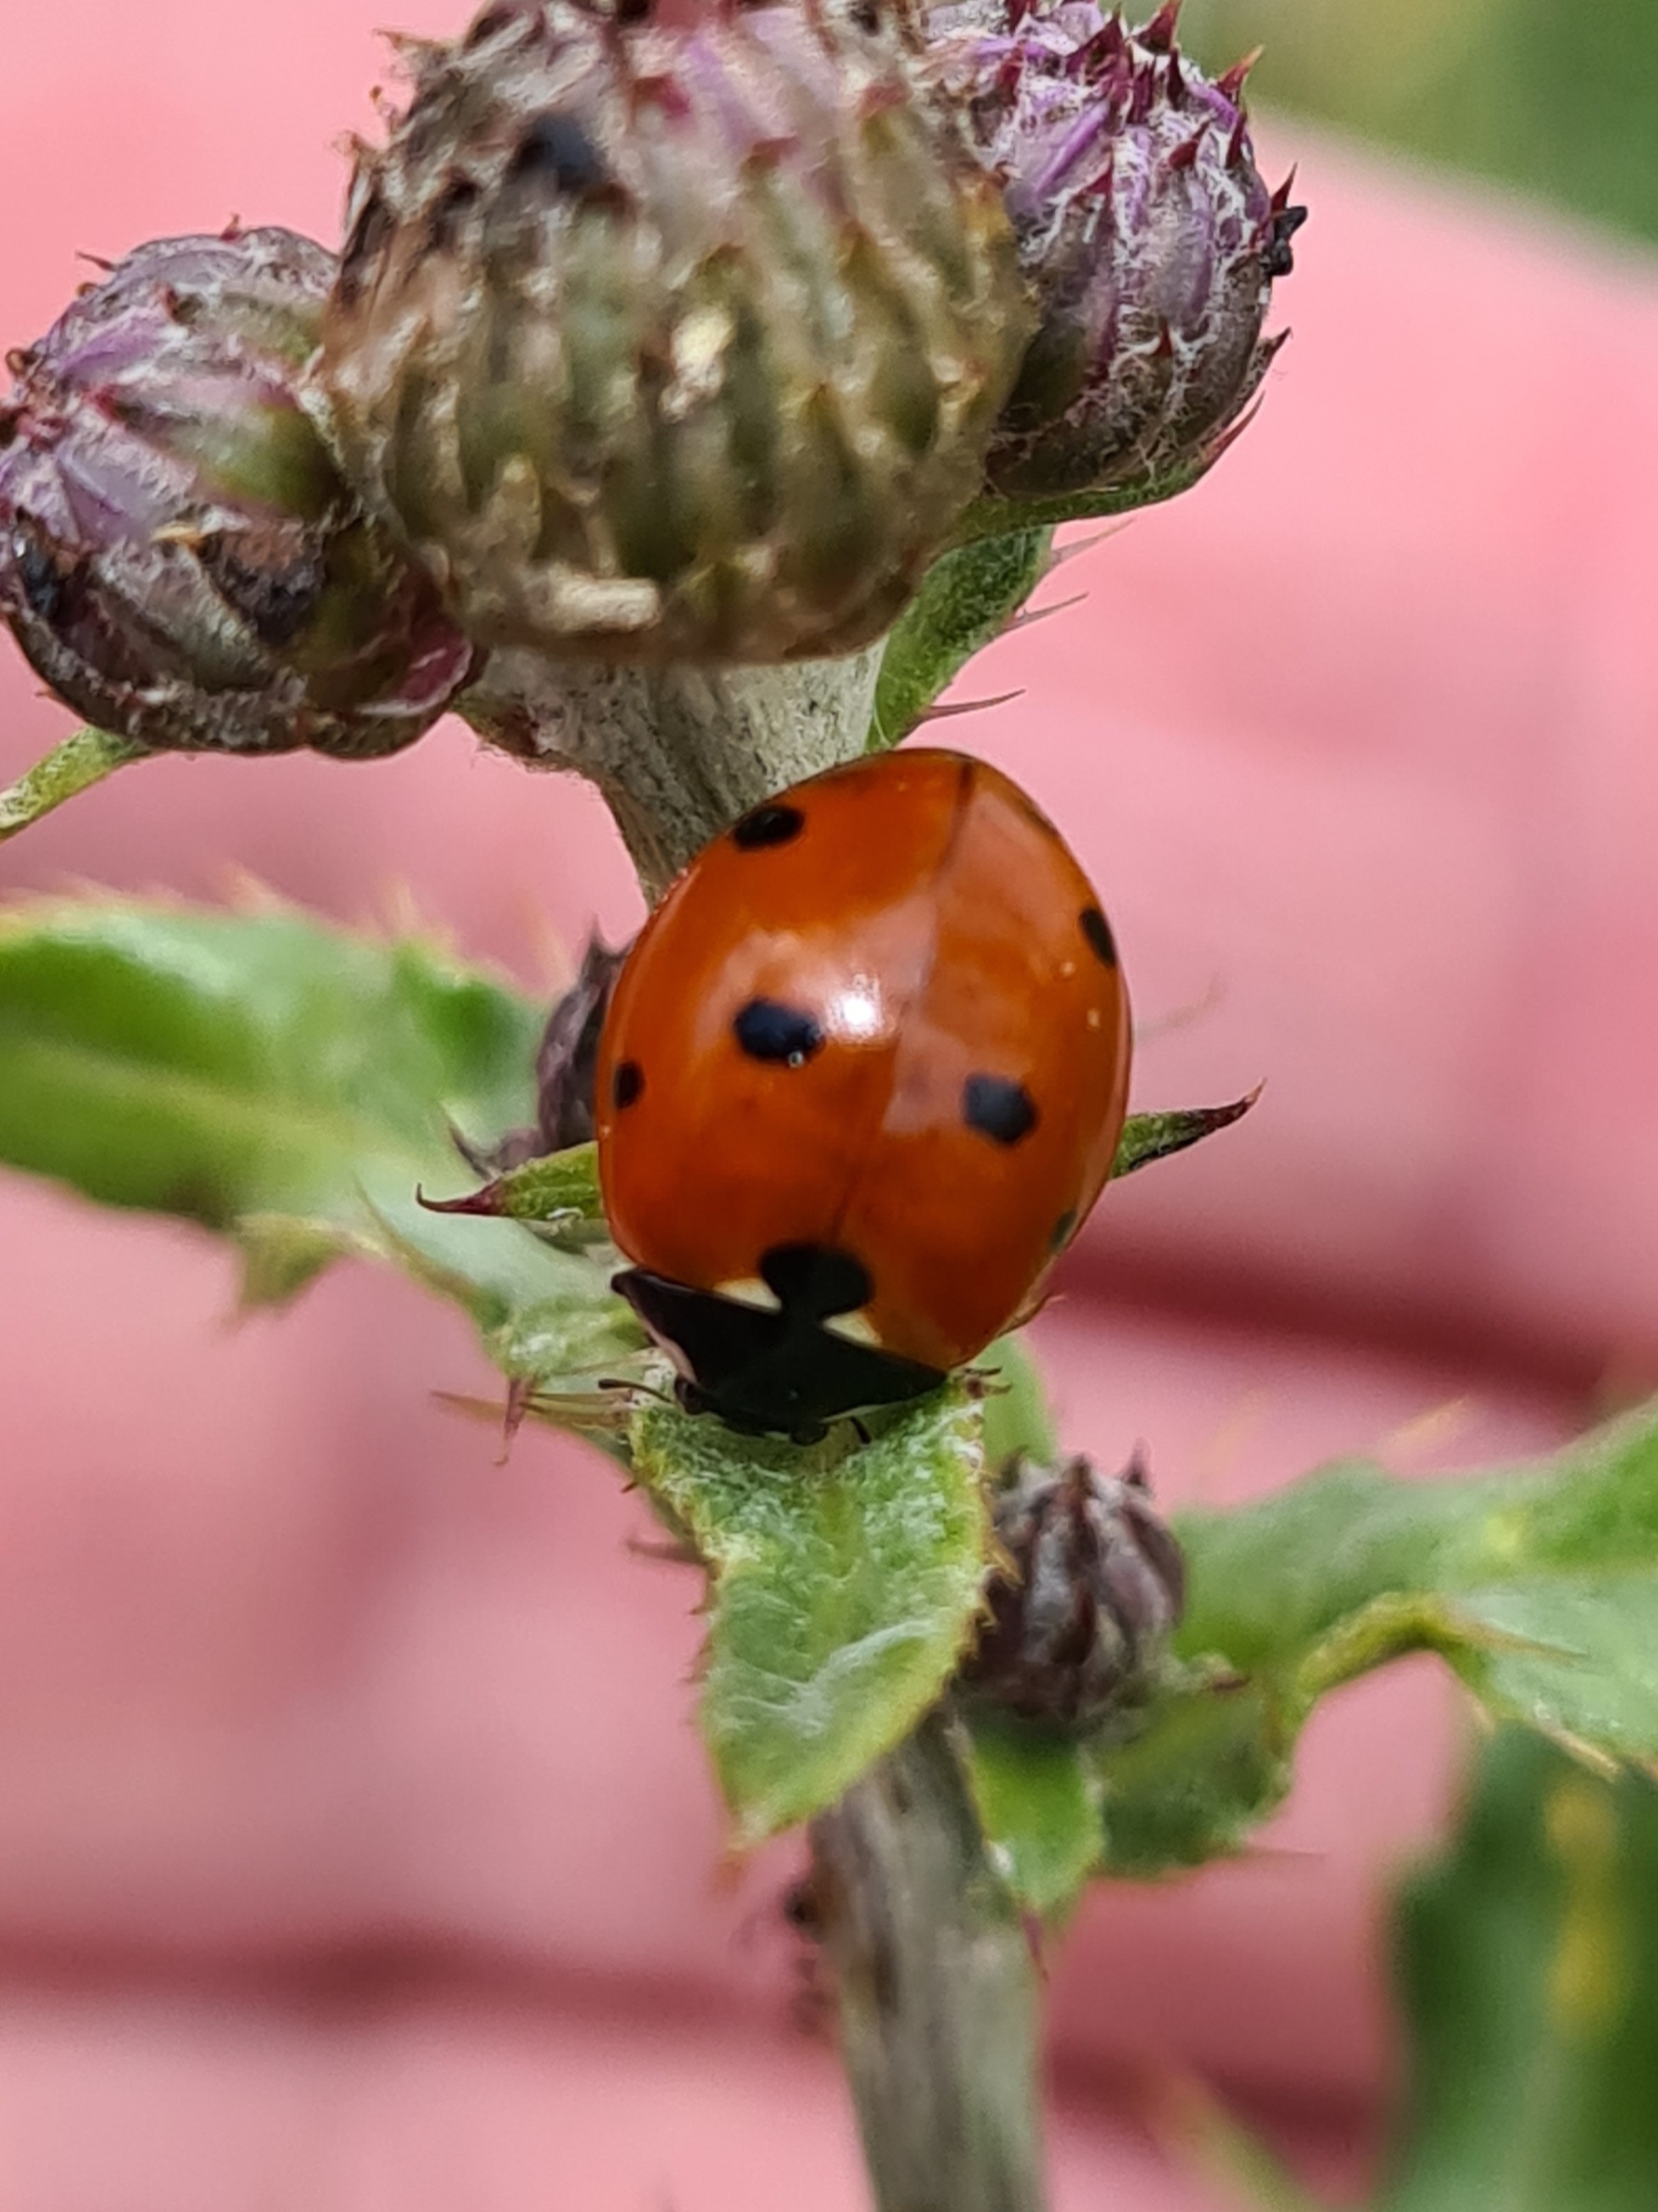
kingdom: Animalia
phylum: Arthropoda
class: Insecta
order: Coleoptera
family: Coccinellidae
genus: Coccinella
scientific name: Coccinella septempunctata
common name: Syvplettet mariehøne
